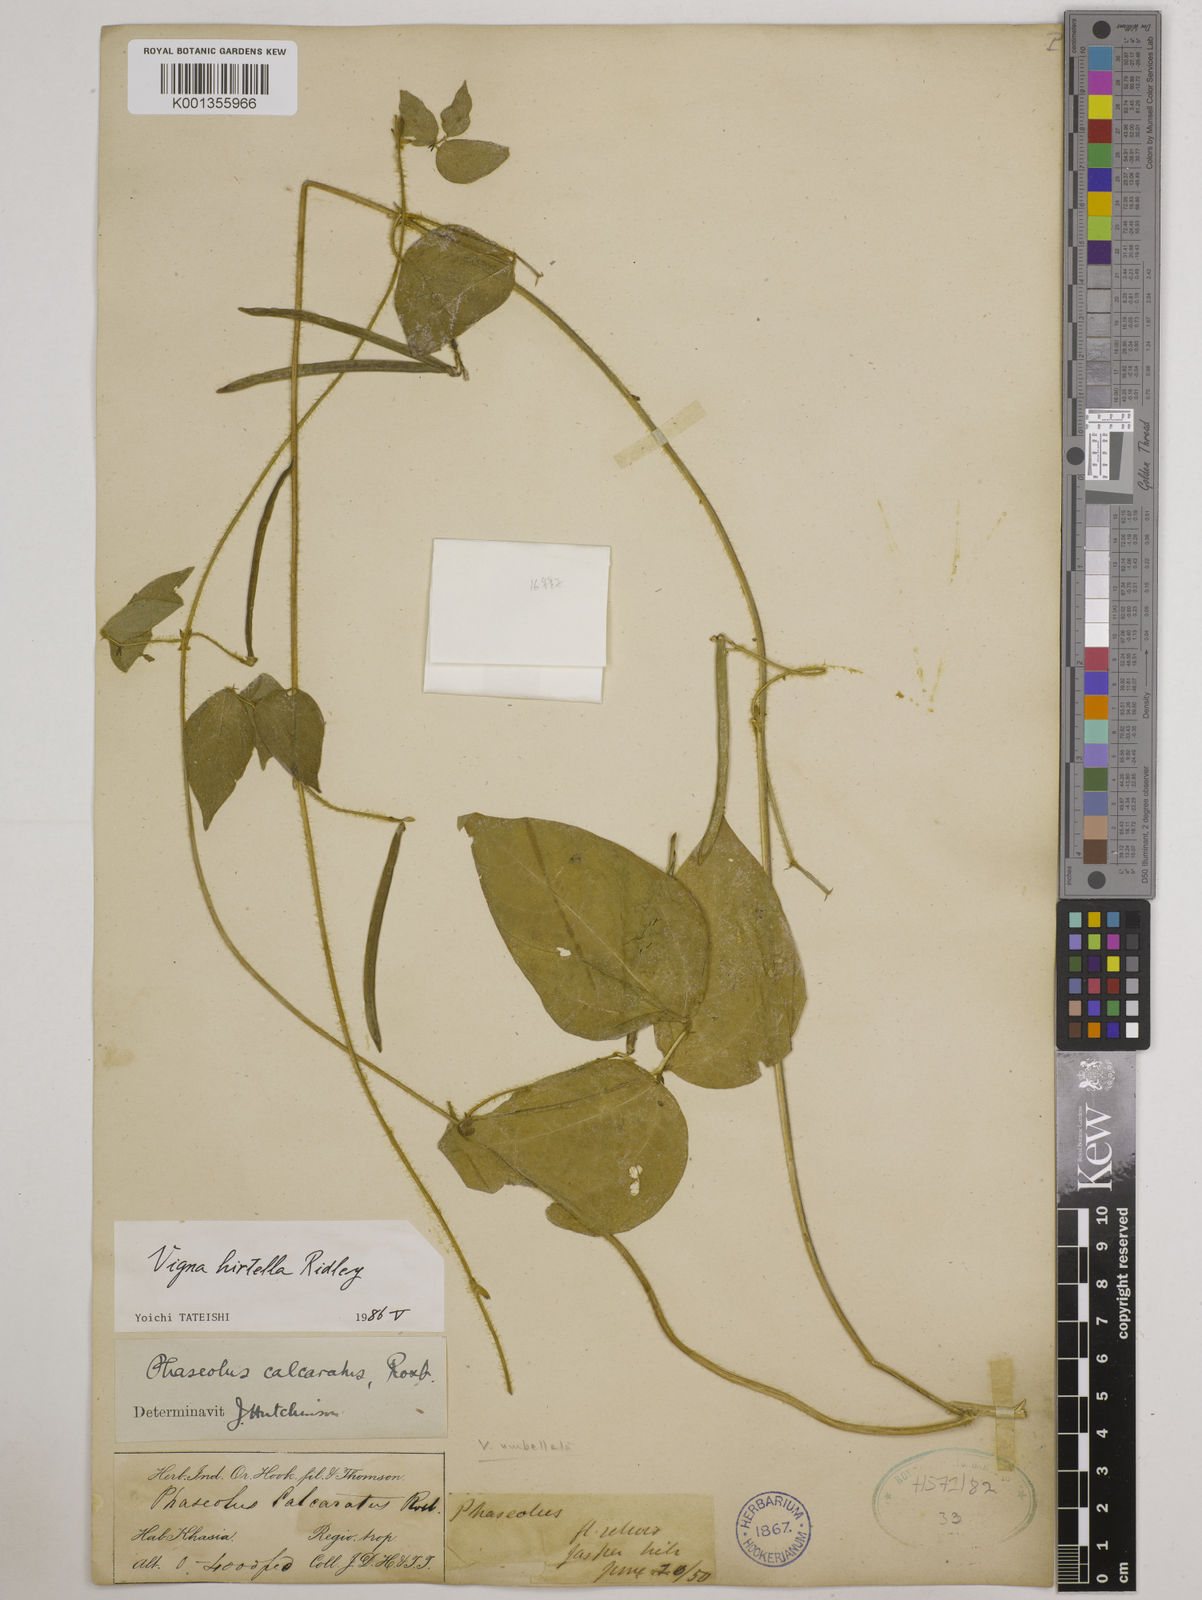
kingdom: Plantae
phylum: Tracheophyta
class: Magnoliopsida
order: Fabales
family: Fabaceae
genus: Vigna
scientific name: Vigna hirtella
